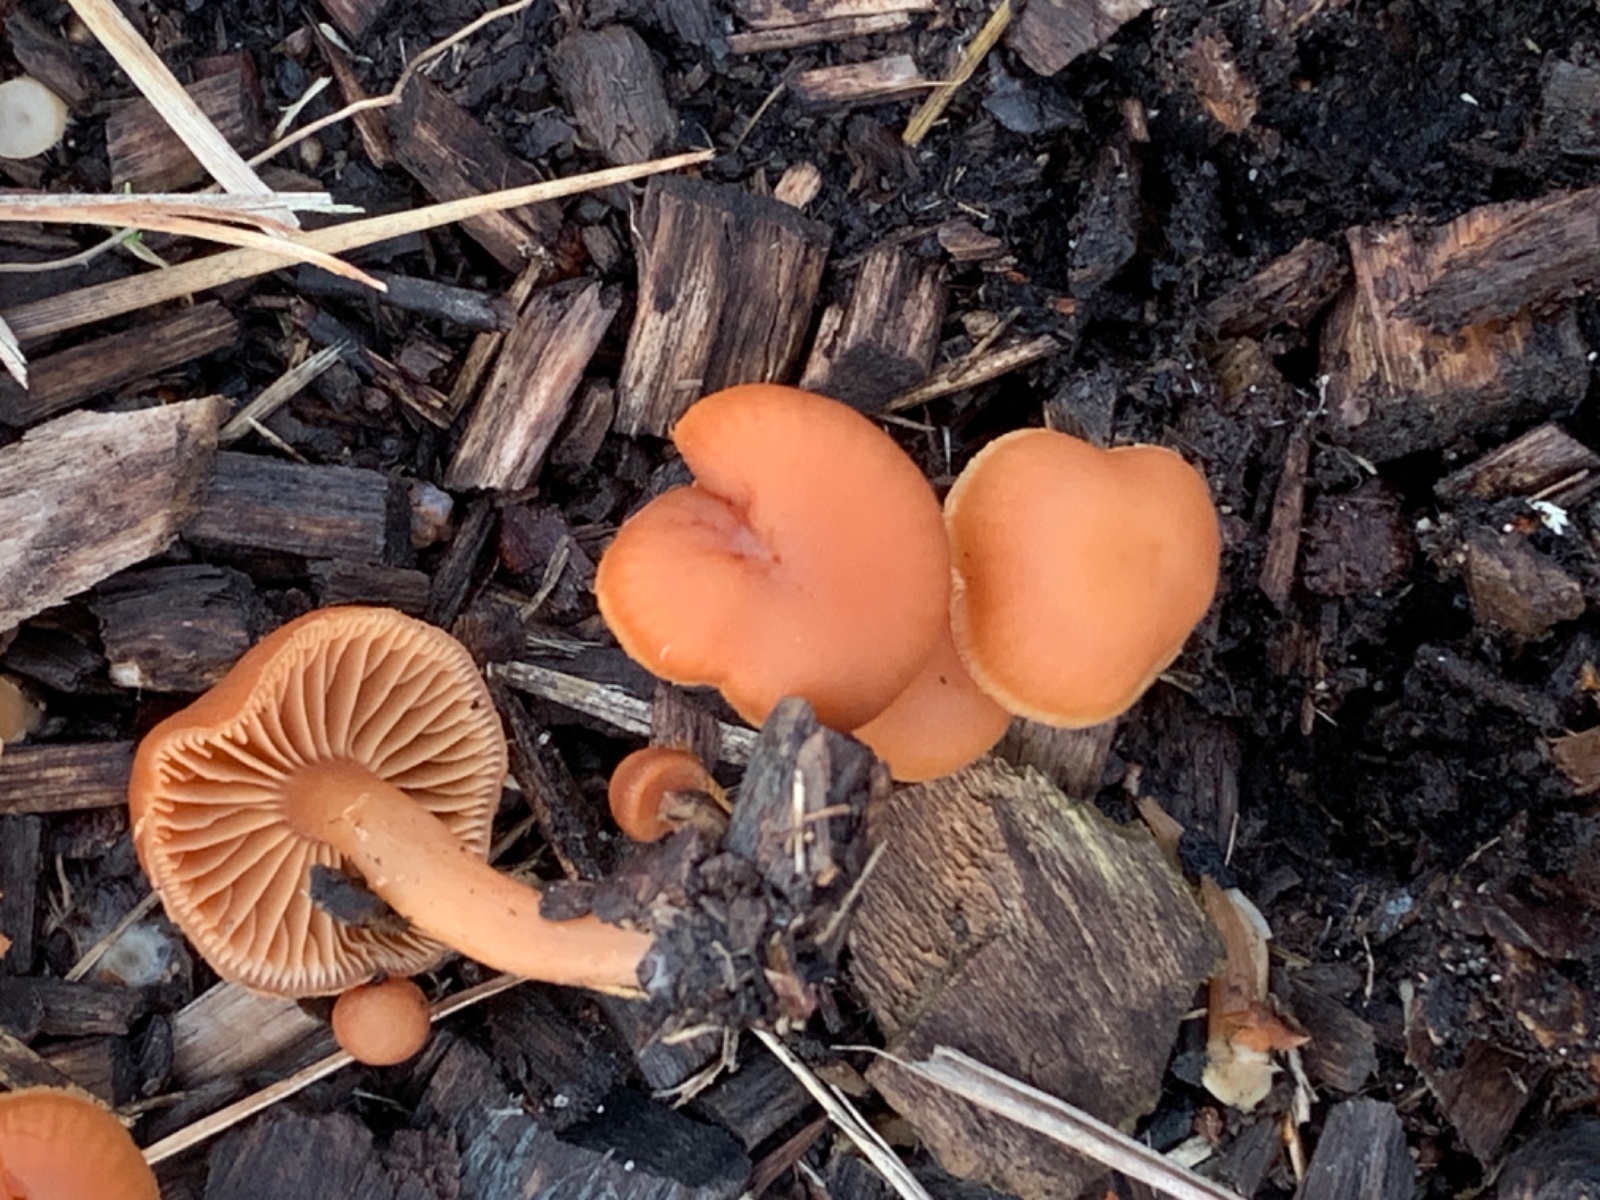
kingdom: Fungi
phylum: Basidiomycota
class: Agaricomycetes
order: Agaricales
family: Tubariaceae
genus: Tubaria
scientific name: Tubaria furfuracea
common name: kliddet fnughat
